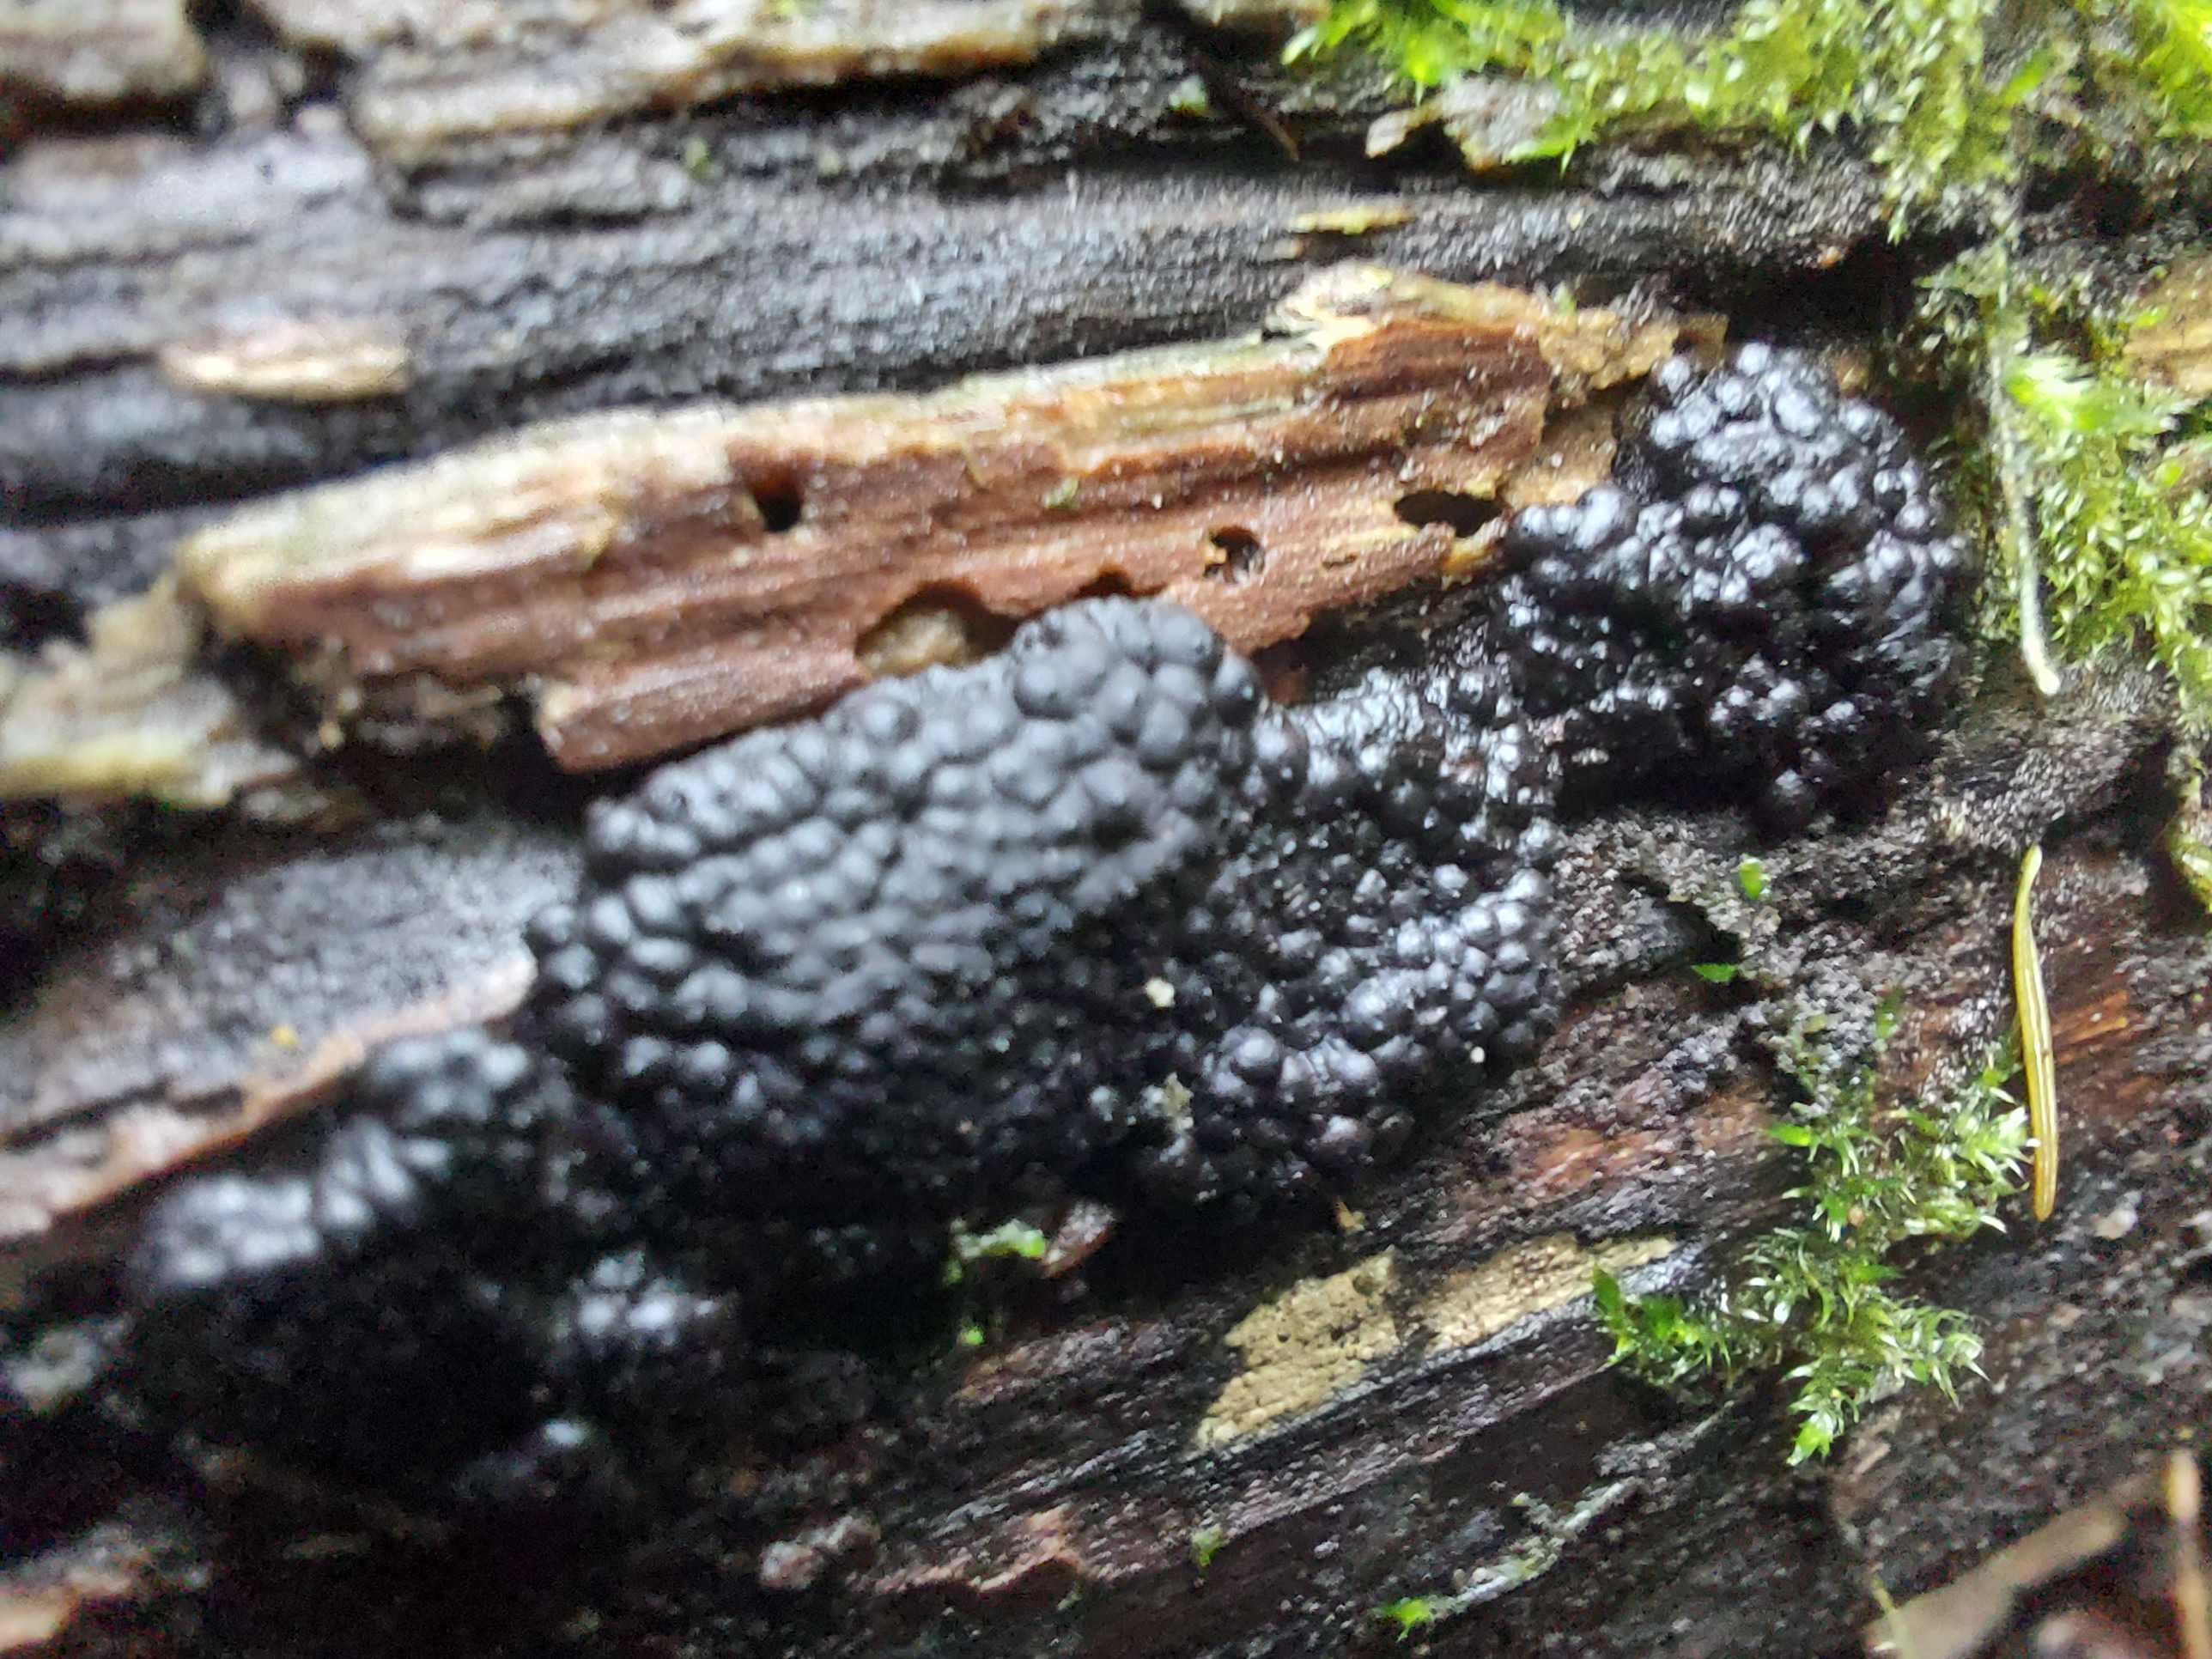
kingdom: Fungi
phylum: Ascomycota
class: Sordariomycetes
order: Xylariales
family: Hypoxylaceae
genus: Jackrogersella
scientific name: Jackrogersella multiformis
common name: foranderlig kulbær
